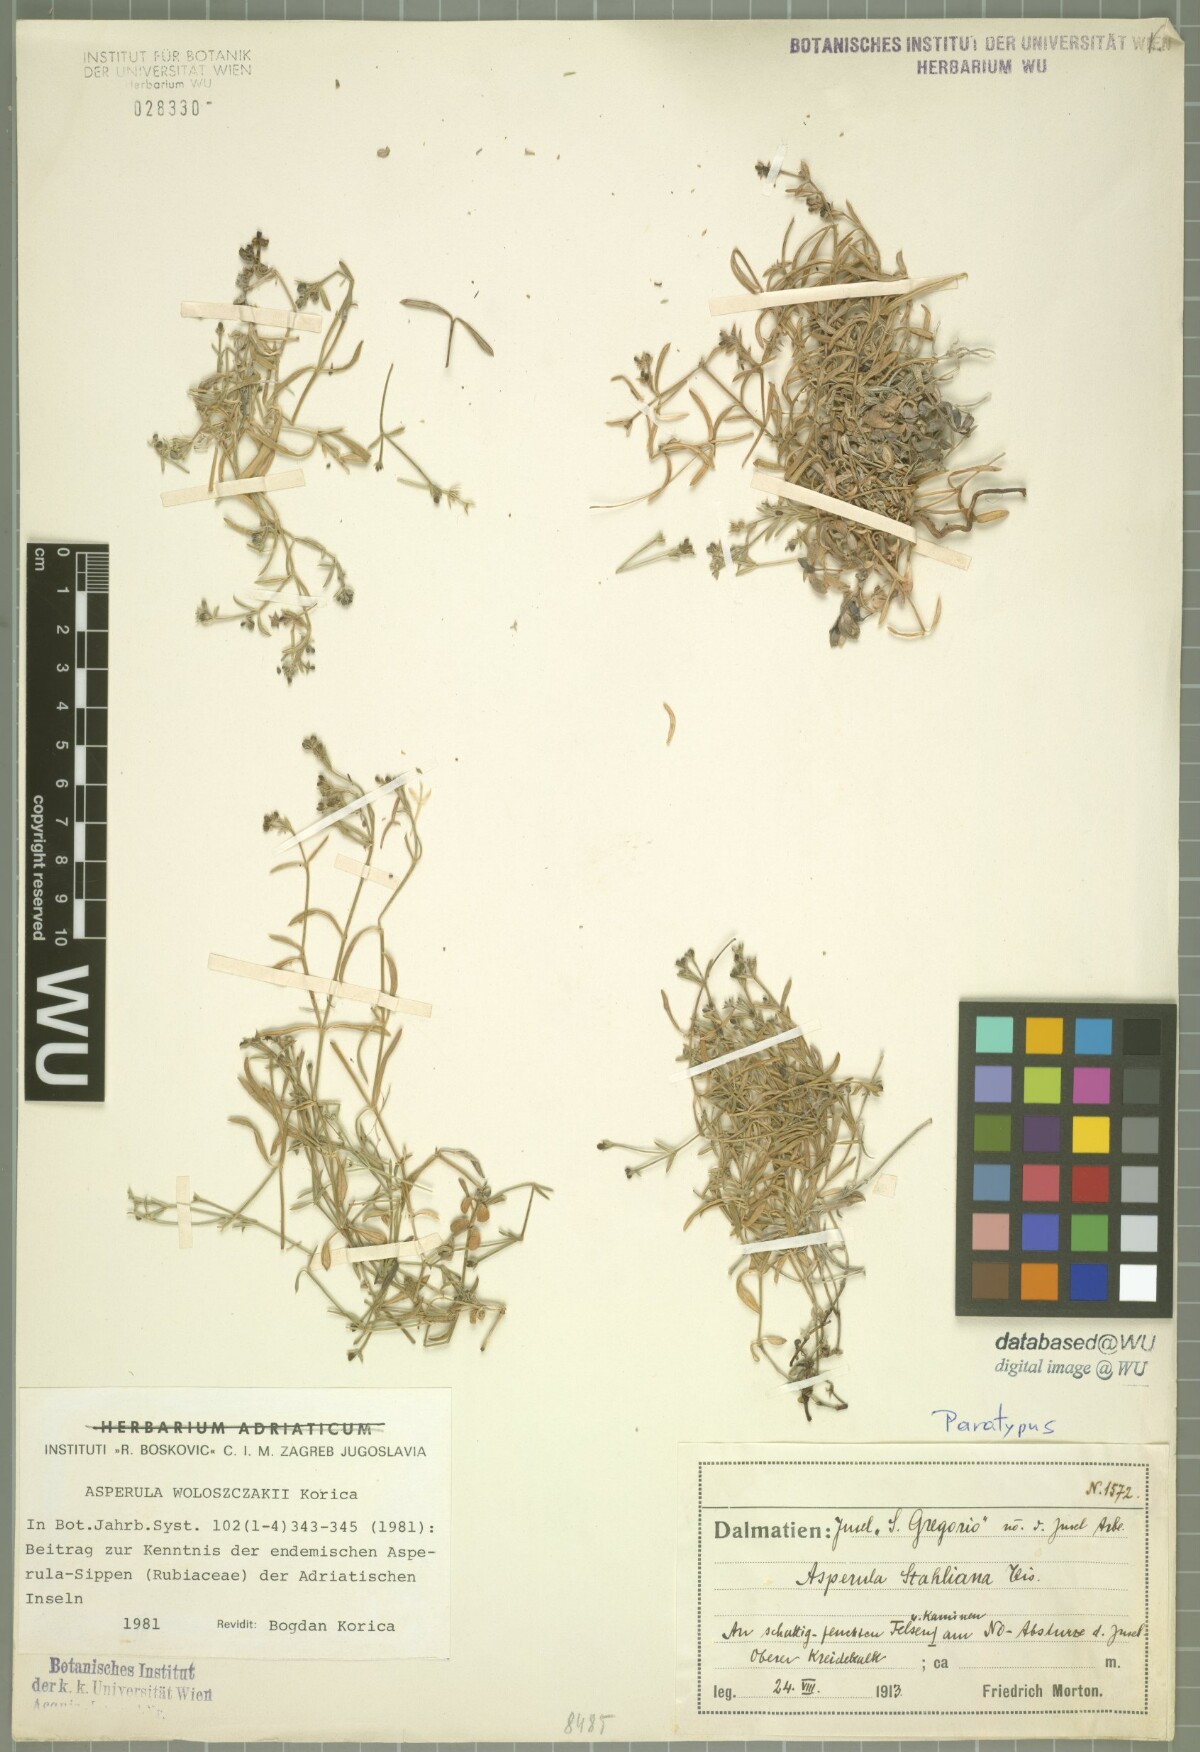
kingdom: Plantae
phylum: Tracheophyta
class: Magnoliopsida
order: Gentianales
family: Rubiaceae
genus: Cynanchica
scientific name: Cynanchica woloszczakii
